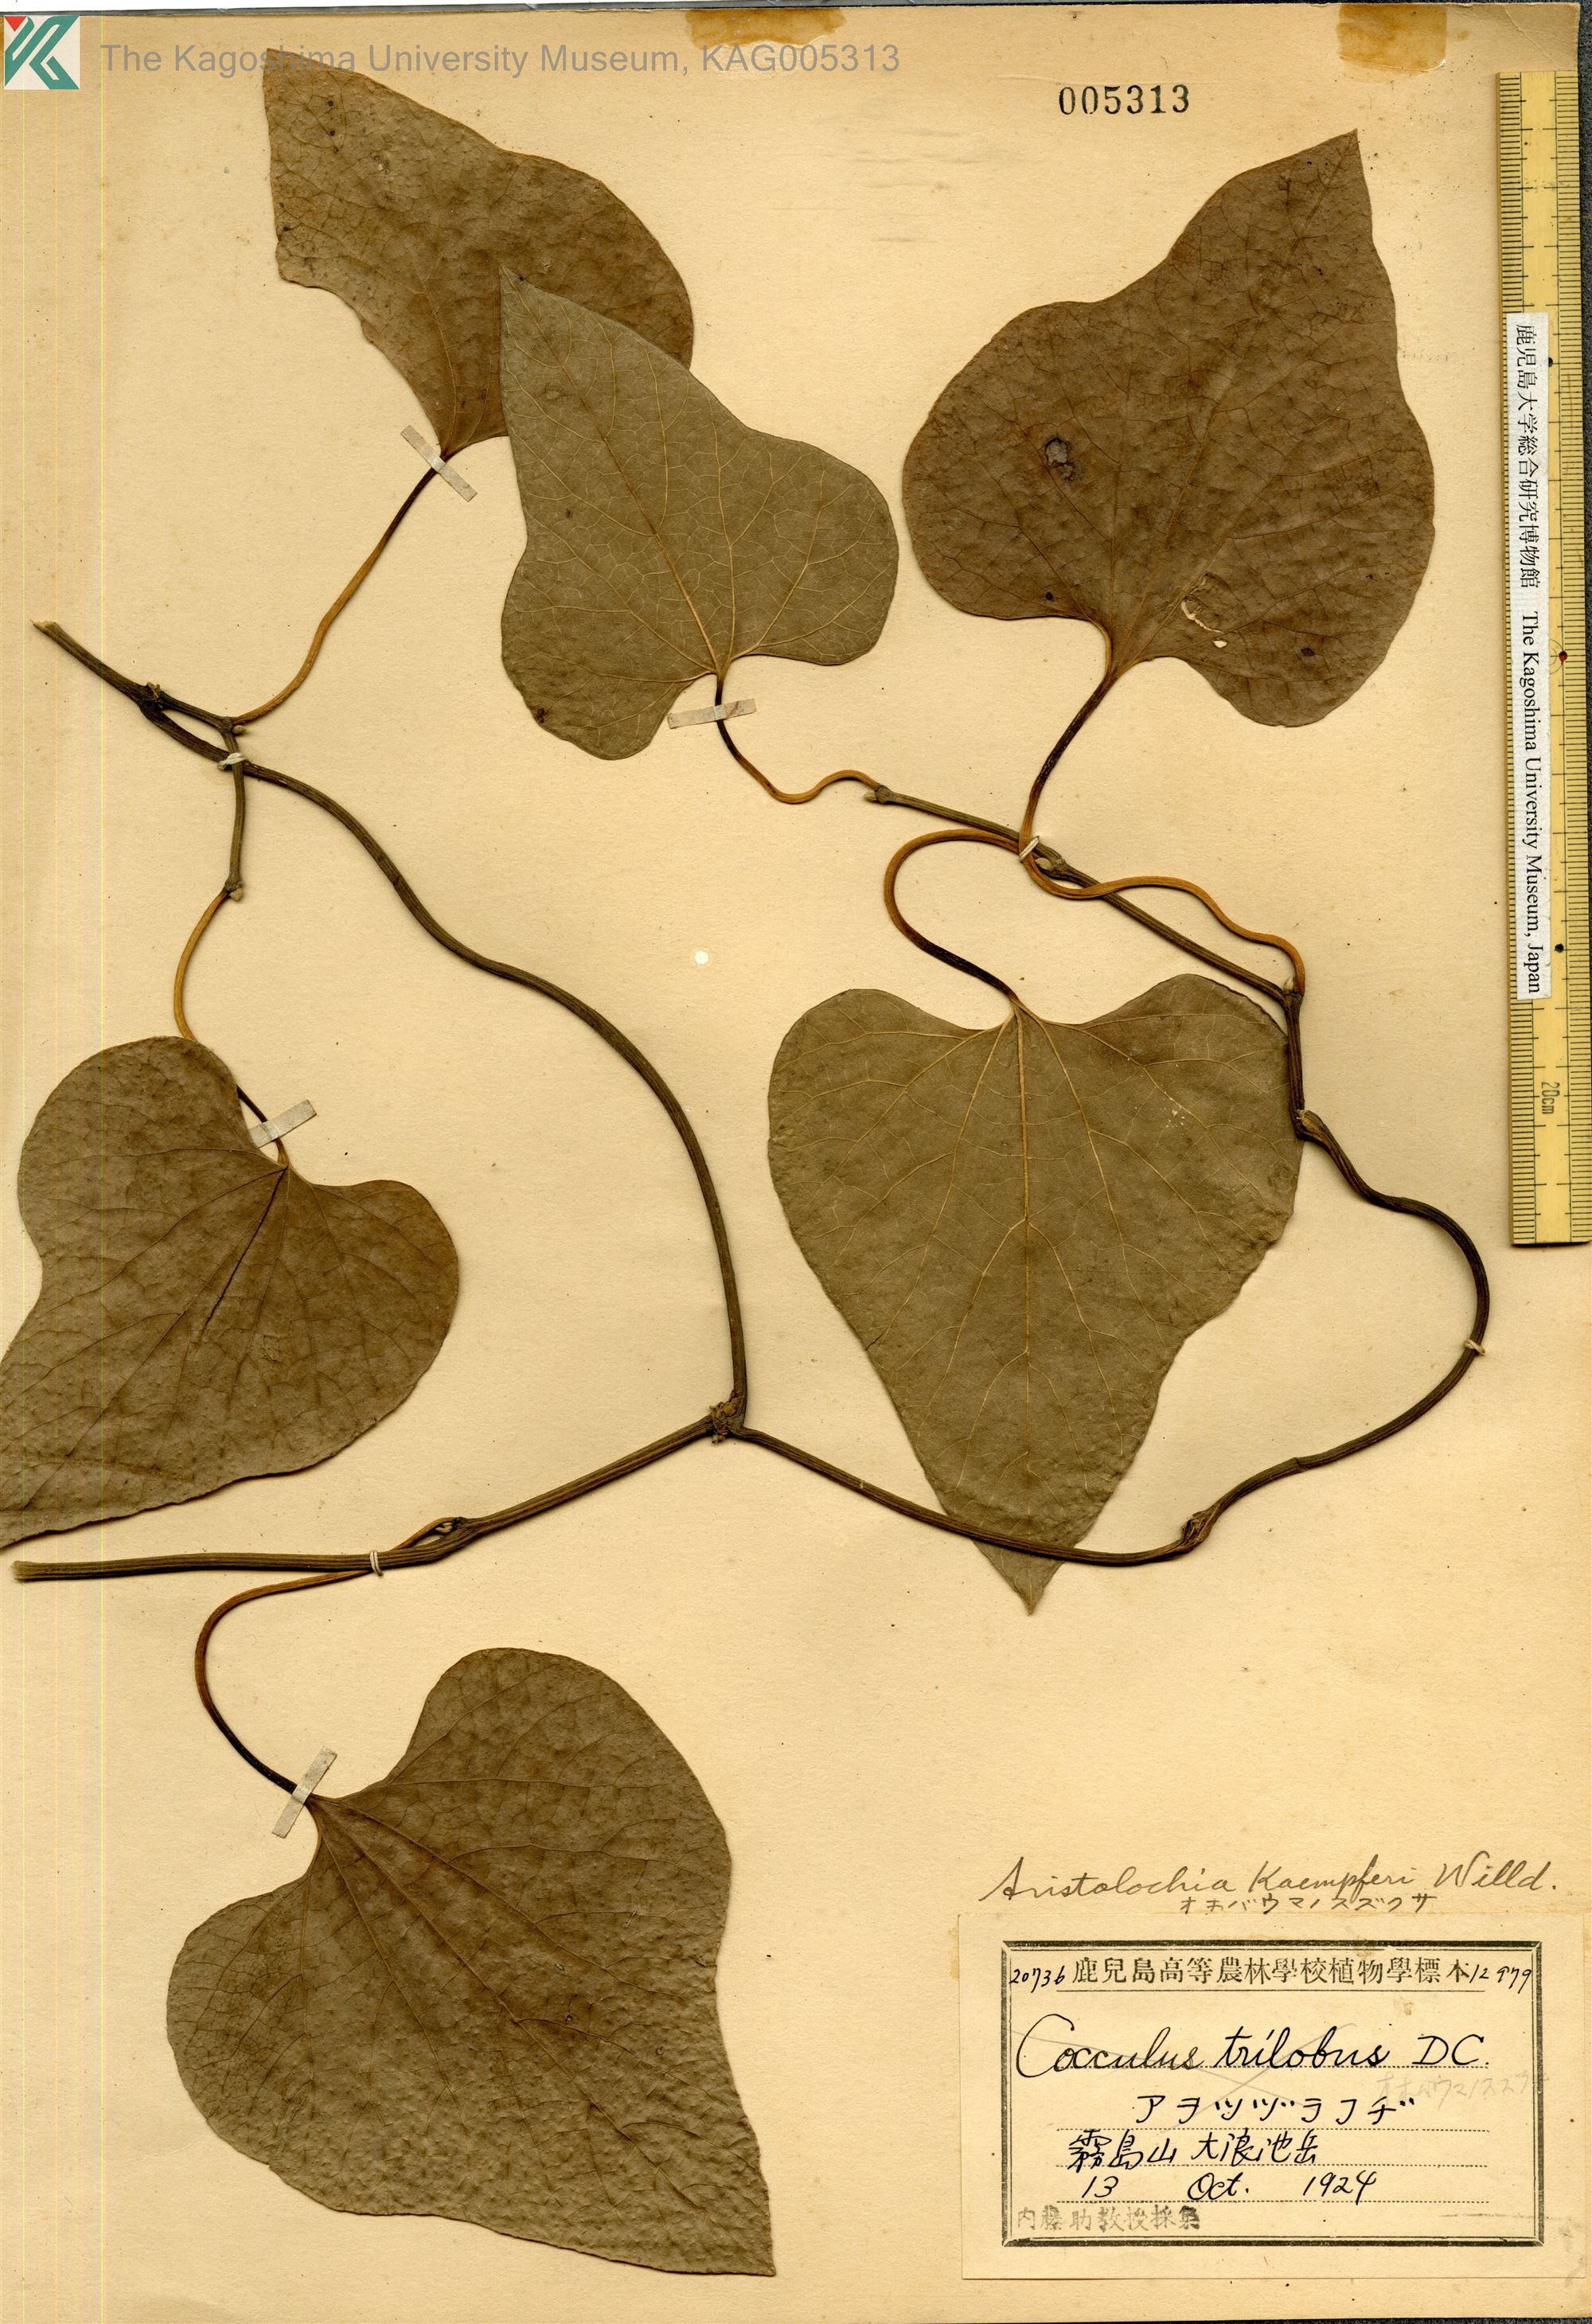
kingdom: Plantae
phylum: Tracheophyta
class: Magnoliopsida
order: Piperales
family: Aristolochiaceae
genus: Isotrema
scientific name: Isotrema kaempferi
